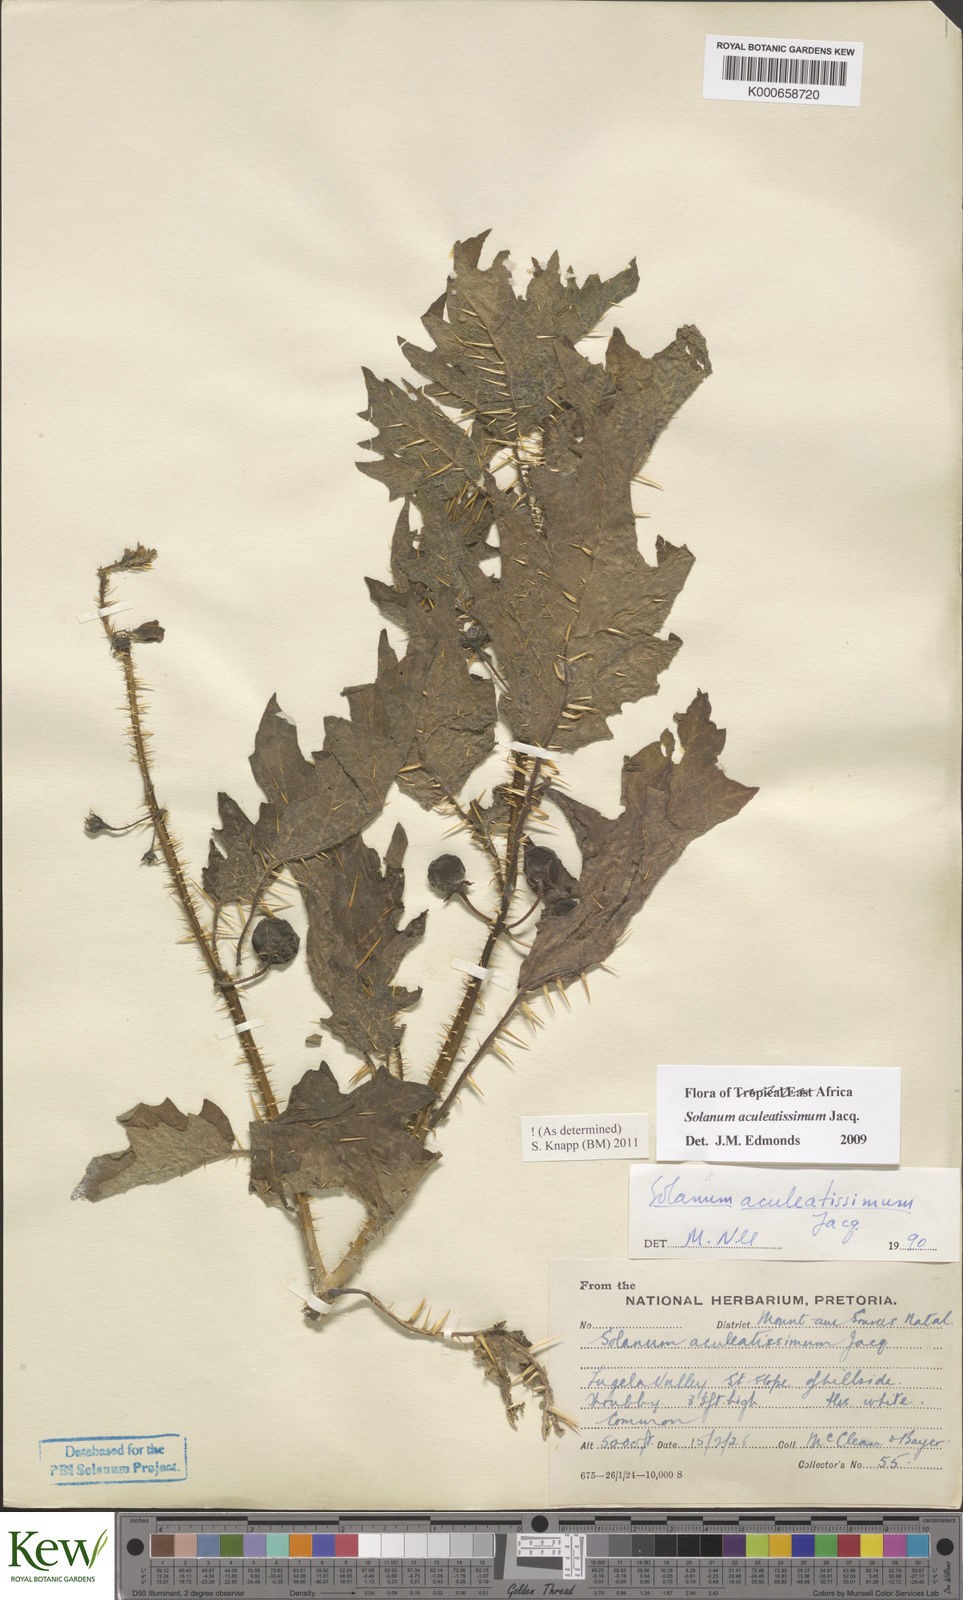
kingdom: Plantae
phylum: Tracheophyta
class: Magnoliopsida
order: Solanales
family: Solanaceae
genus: Solanum
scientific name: Solanum aculeatissimum
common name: Dutch eggplant
